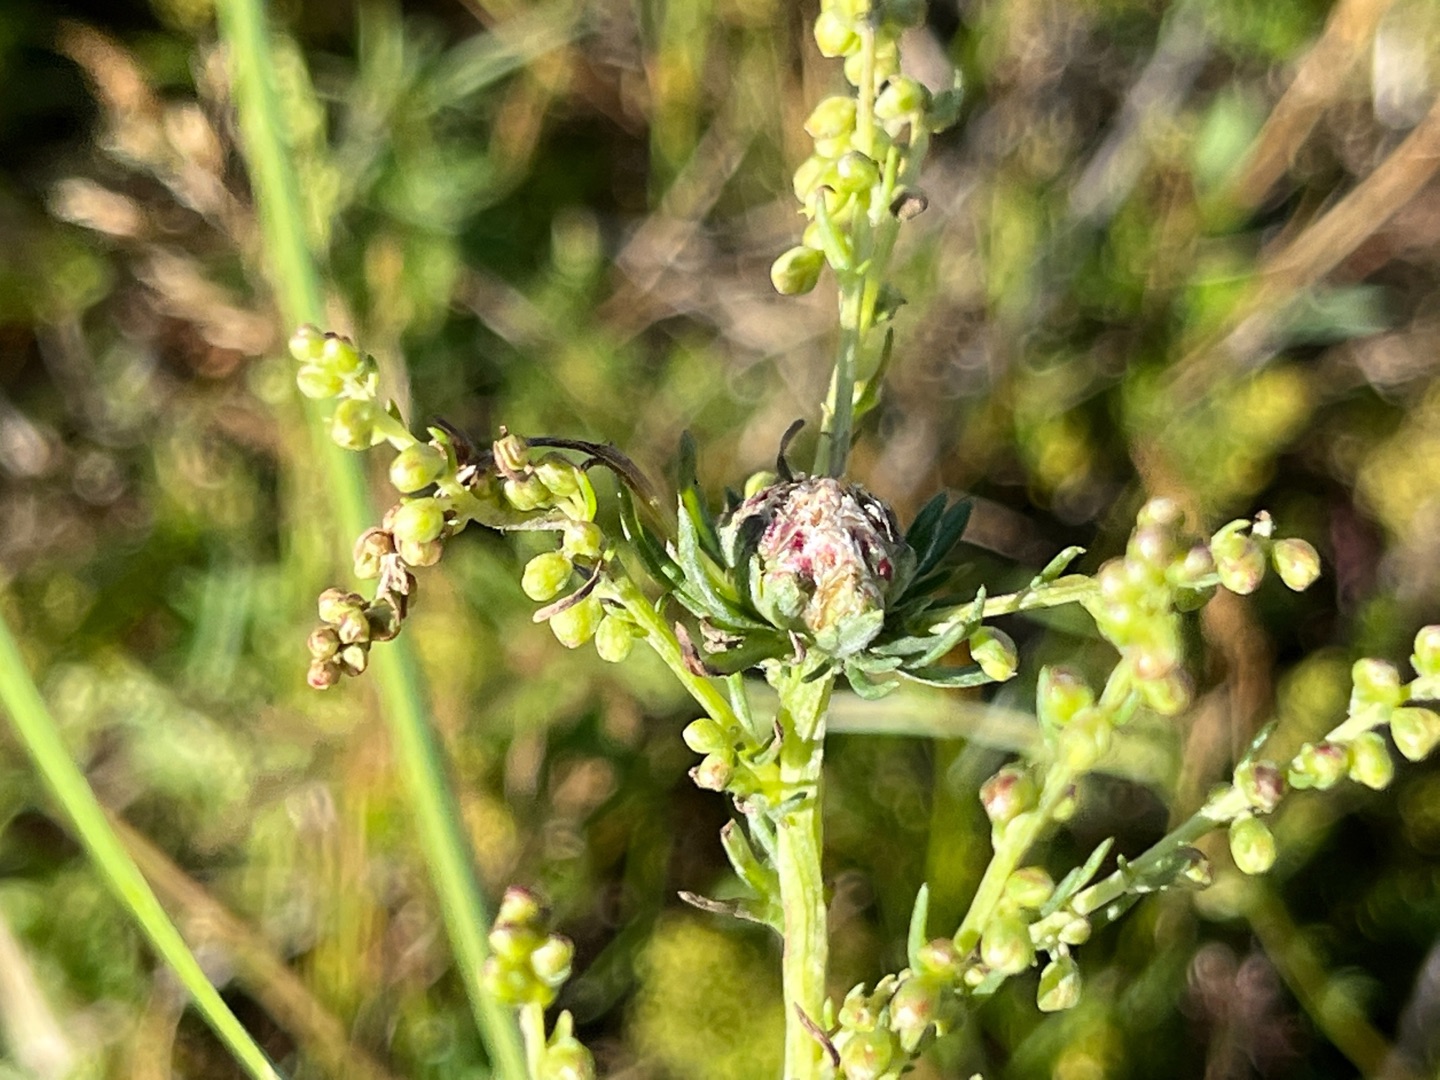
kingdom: Animalia
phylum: Arthropoda
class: Insecta
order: Diptera
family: Cecidomyiidae
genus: Rhopalomyia
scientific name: Rhopalomyia artemisiae
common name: Bynkekuglegalmyg
